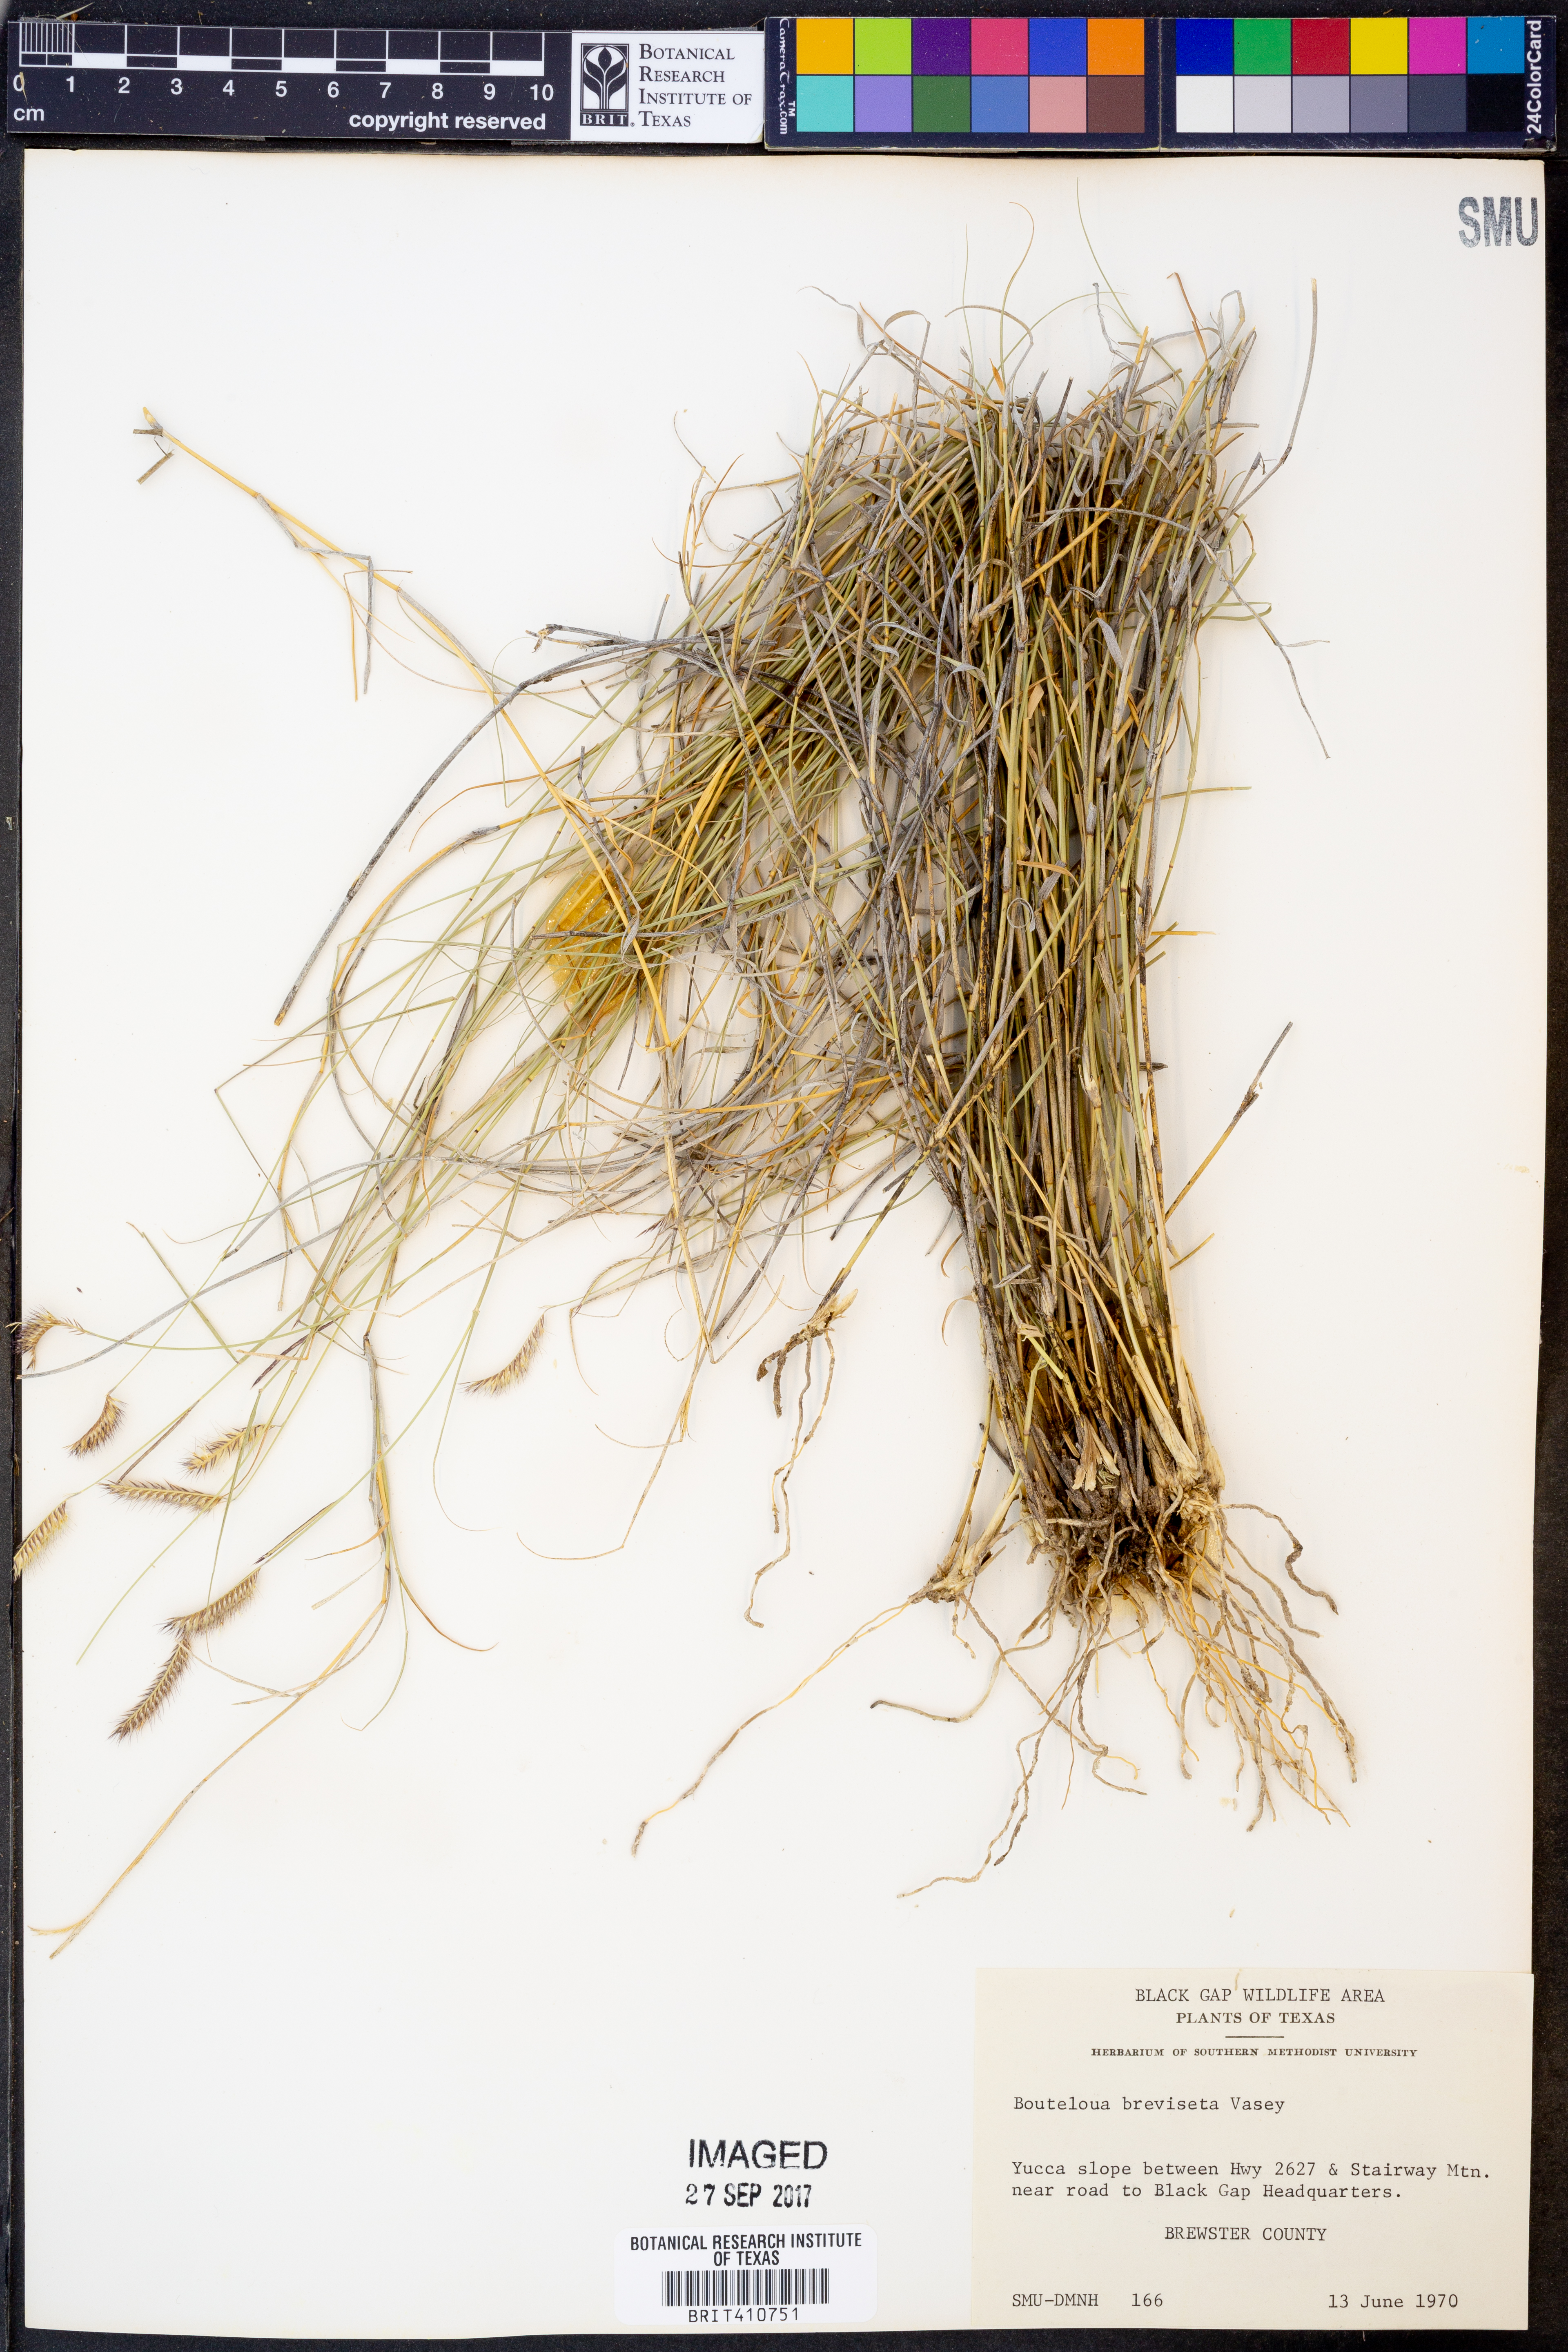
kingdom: Plantae
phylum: Tracheophyta
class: Liliopsida
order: Poales
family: Poaceae
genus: Bouteloua
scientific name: Bouteloua breviseta
